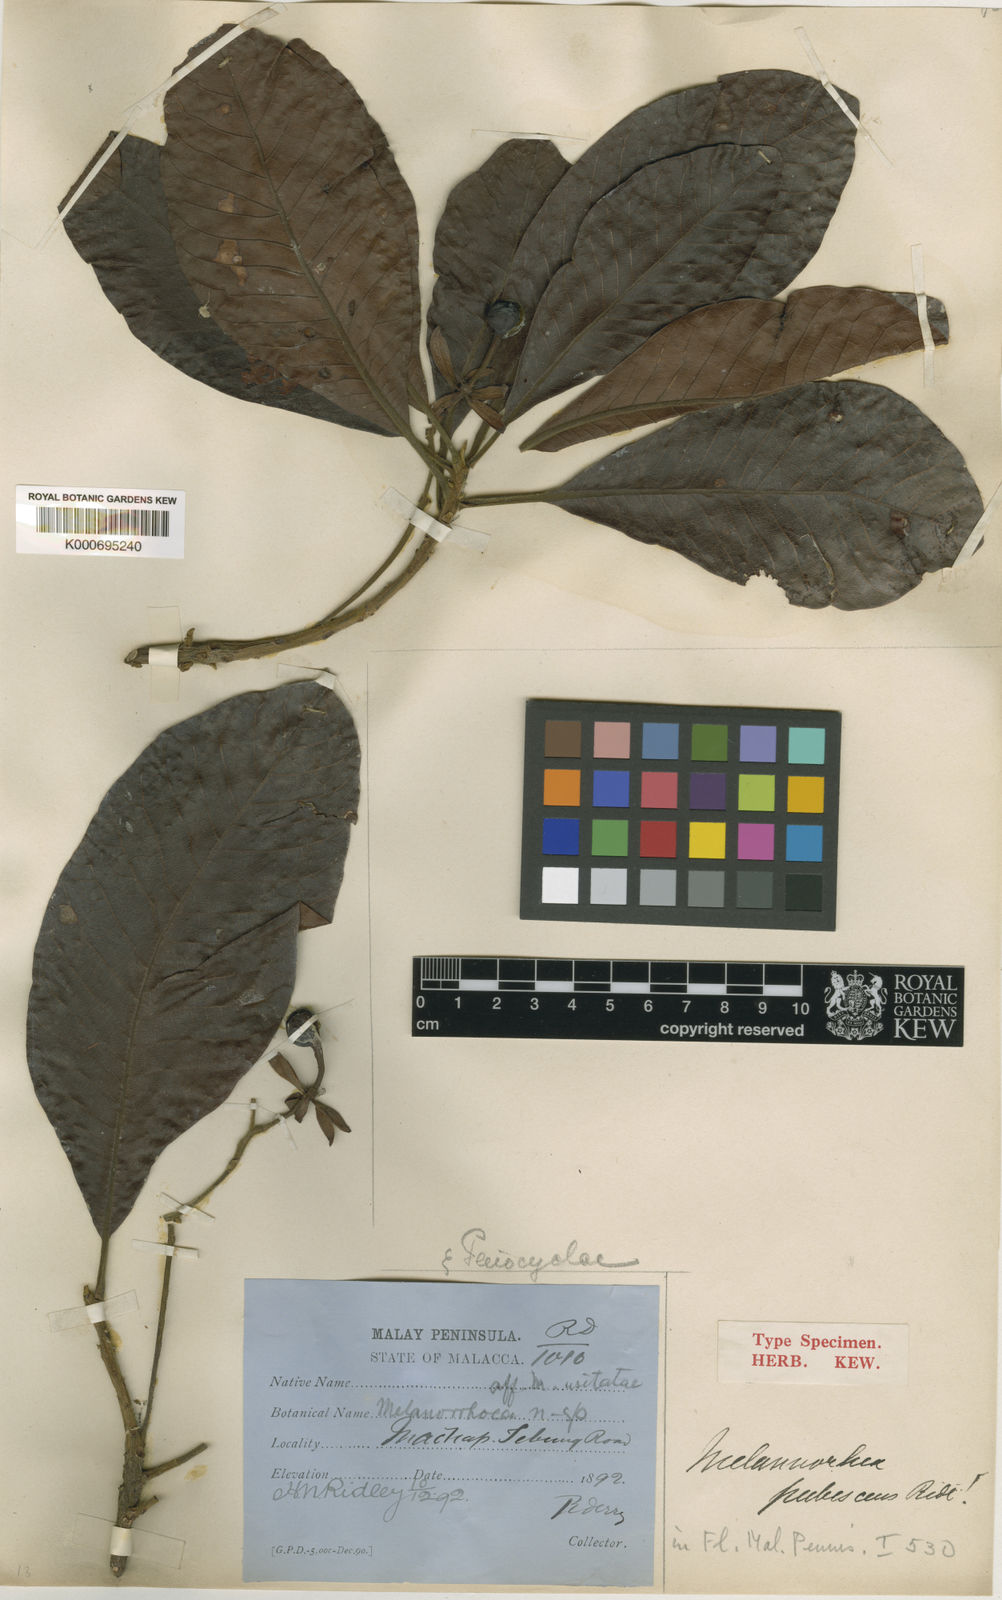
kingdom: Plantae
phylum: Tracheophyta
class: Magnoliopsida
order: Sapindales
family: Anacardiaceae
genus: Gluta
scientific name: Gluta pubescens
